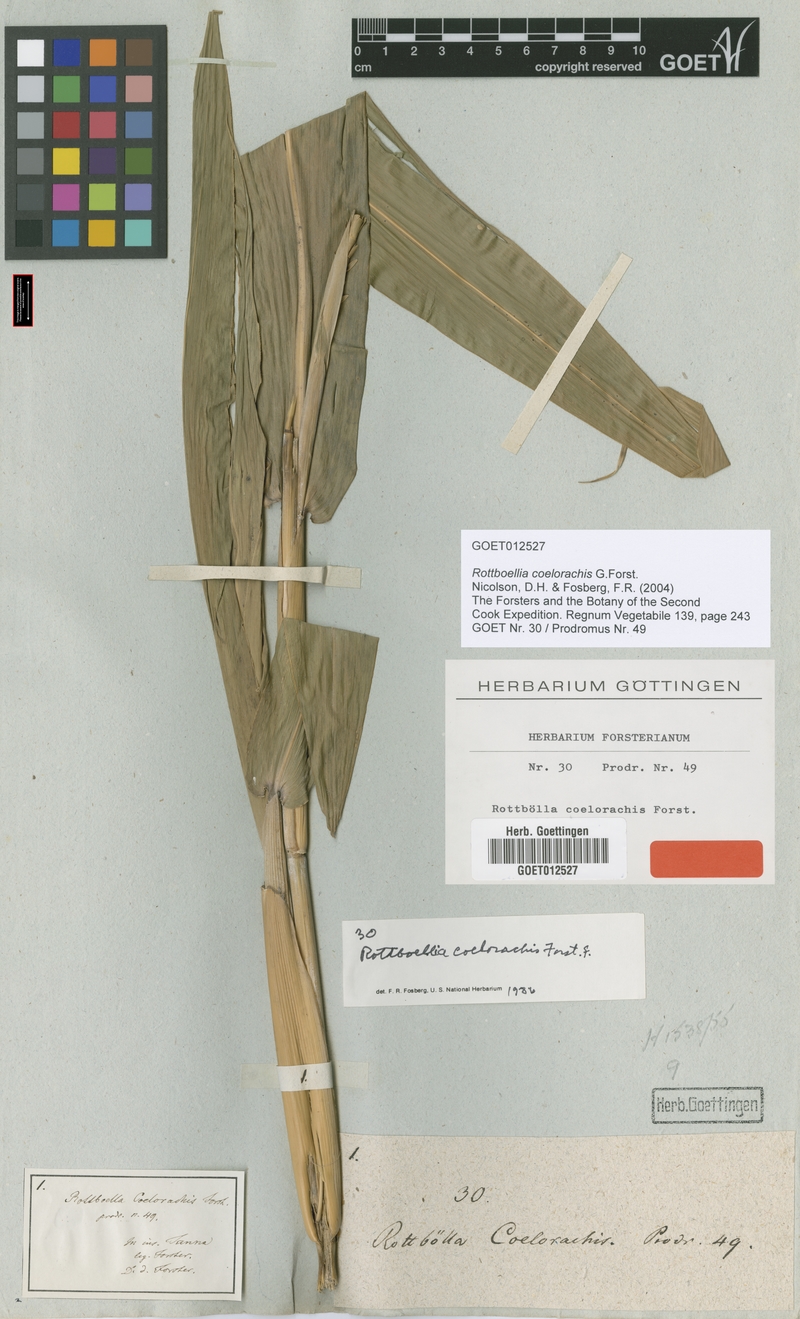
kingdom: Plantae
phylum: Tracheophyta
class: Liliopsida
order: Poales
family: Poaceae
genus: Rottboellia
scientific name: Rottboellia coelorachis
